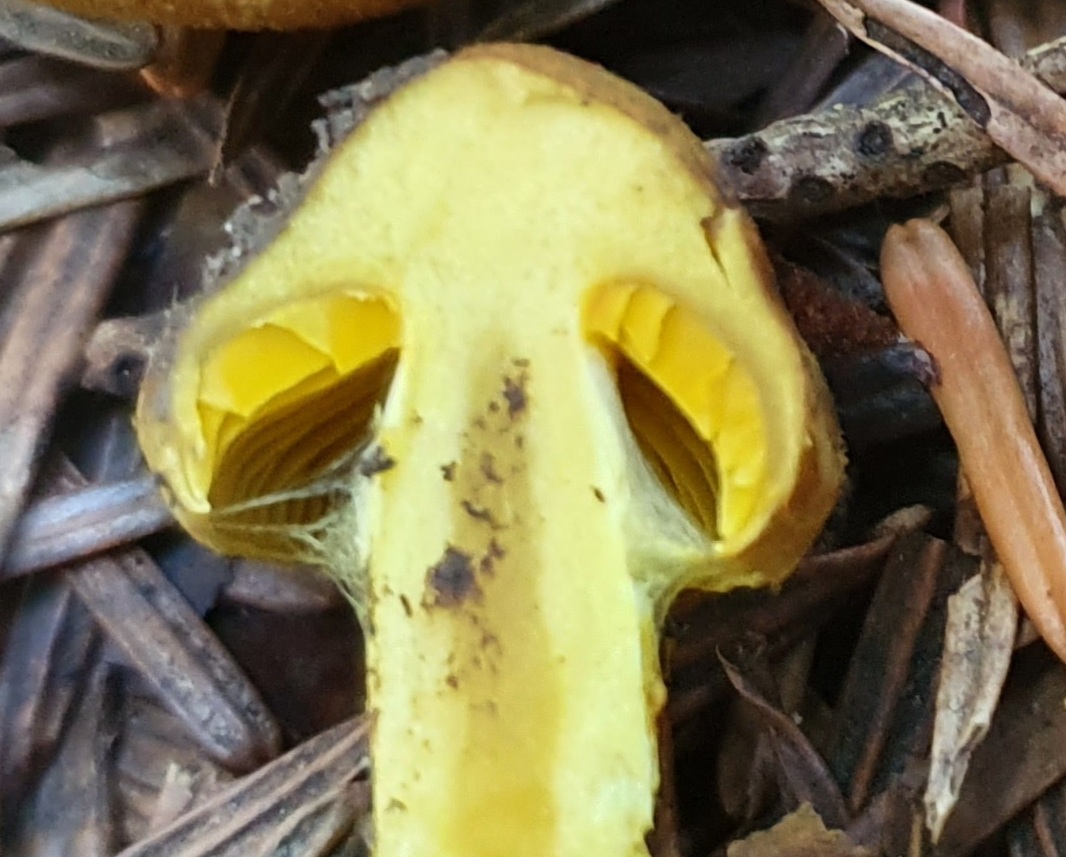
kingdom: Fungi
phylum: Basidiomycota
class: Agaricomycetes
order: Agaricales
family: Cortinariaceae
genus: Cortinarius
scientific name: Cortinarius
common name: gulbladet slørhat
